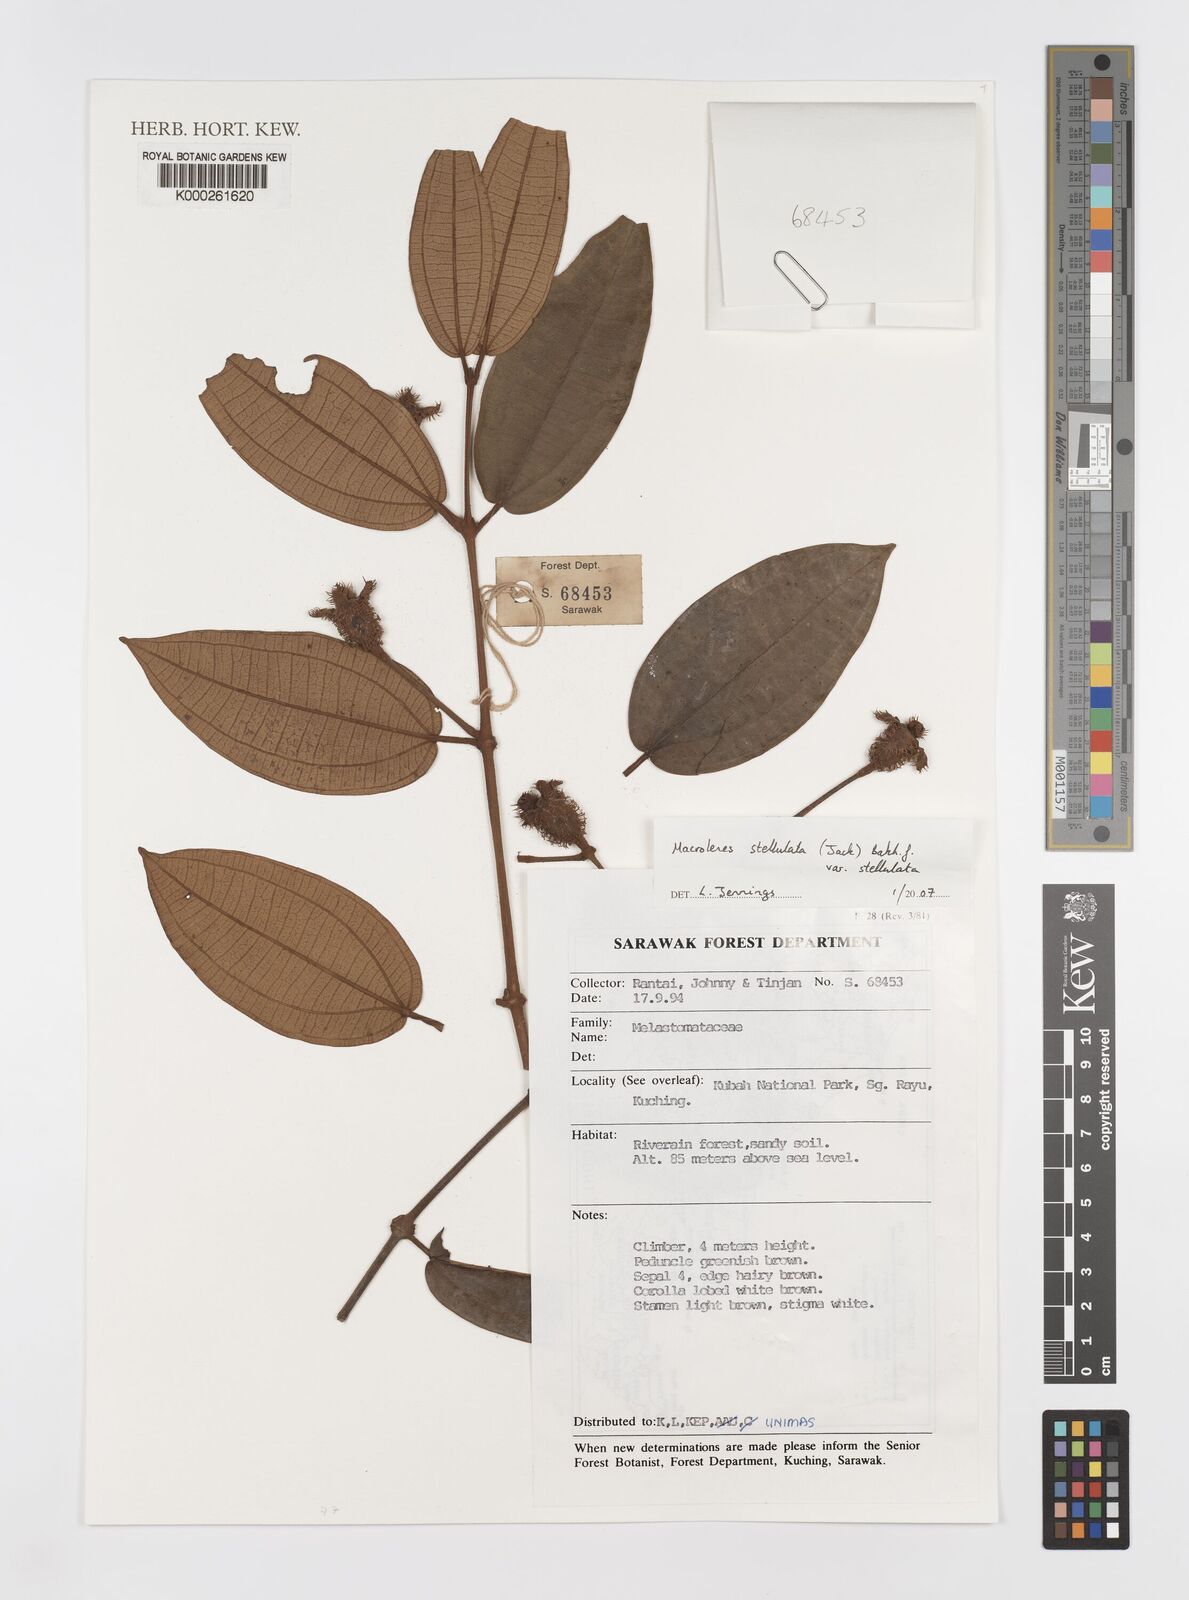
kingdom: Plantae
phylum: Tracheophyta
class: Magnoliopsida
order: Myrtales
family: Melastomataceae
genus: Macrolenes
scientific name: Macrolenes stellulata
